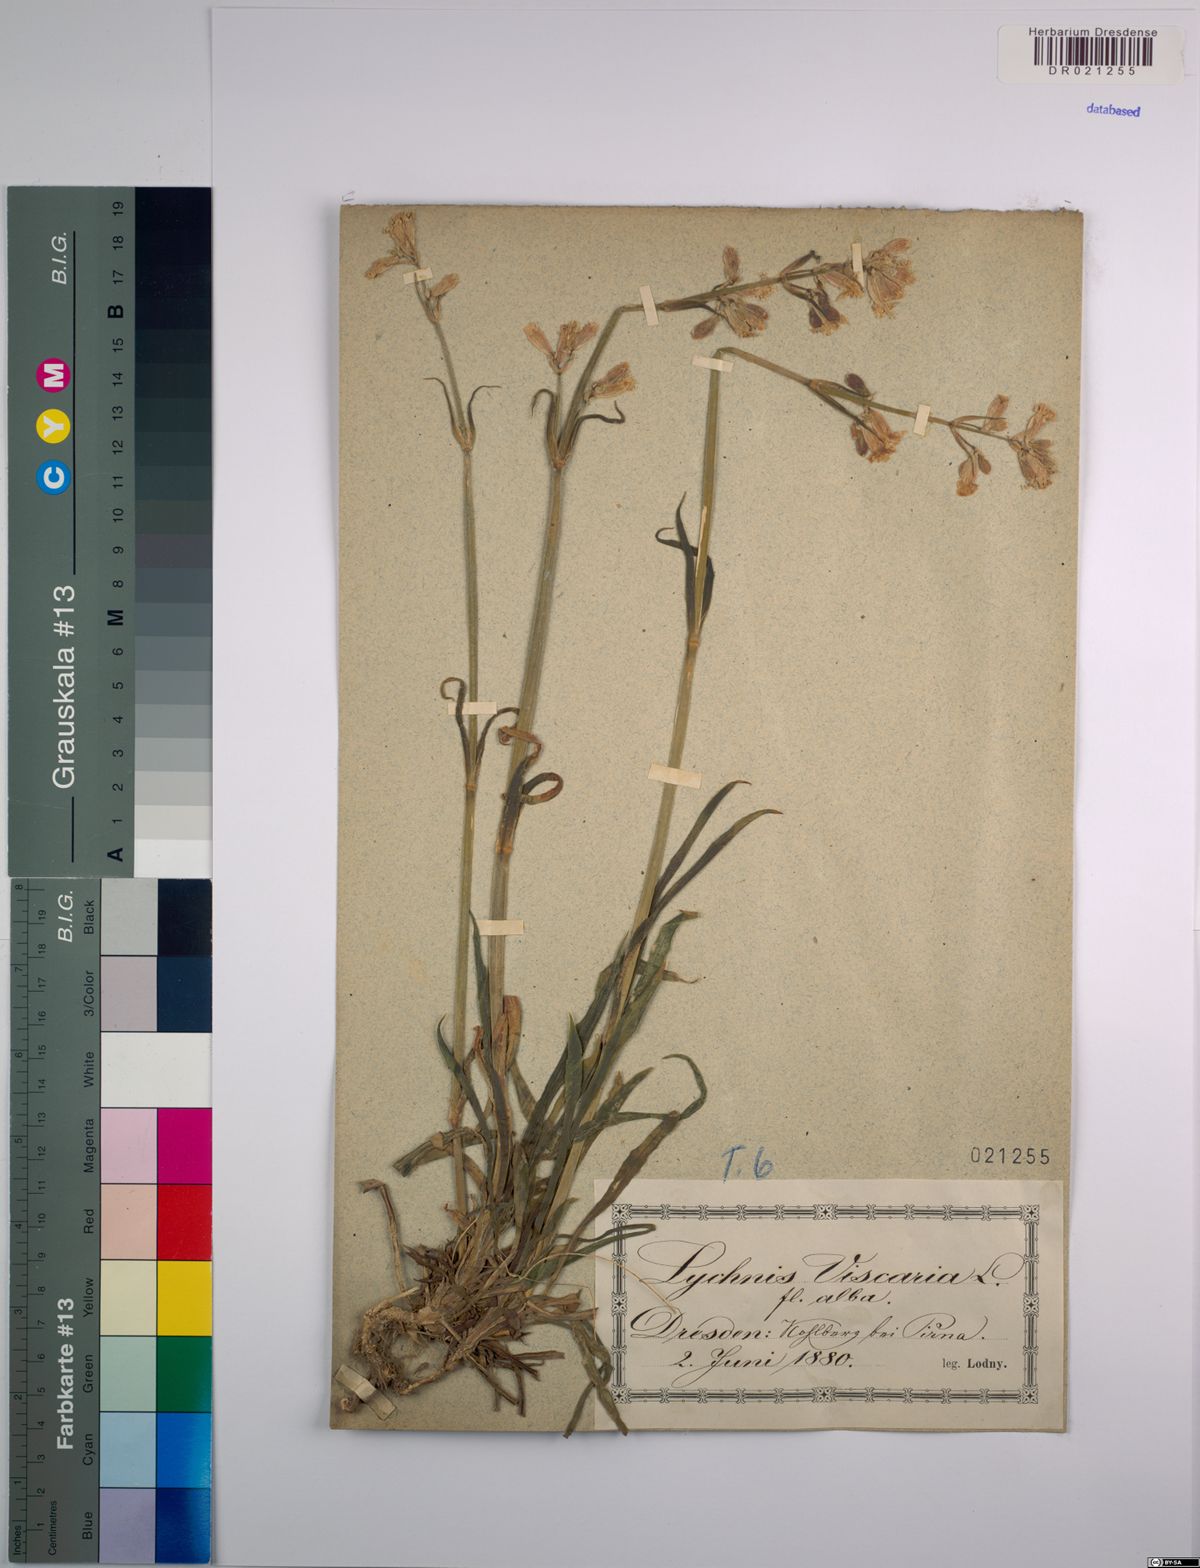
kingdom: Plantae
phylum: Tracheophyta
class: Magnoliopsida
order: Caryophyllales
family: Caryophyllaceae
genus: Viscaria
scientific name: Viscaria vulgaris
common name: Clammy campion
